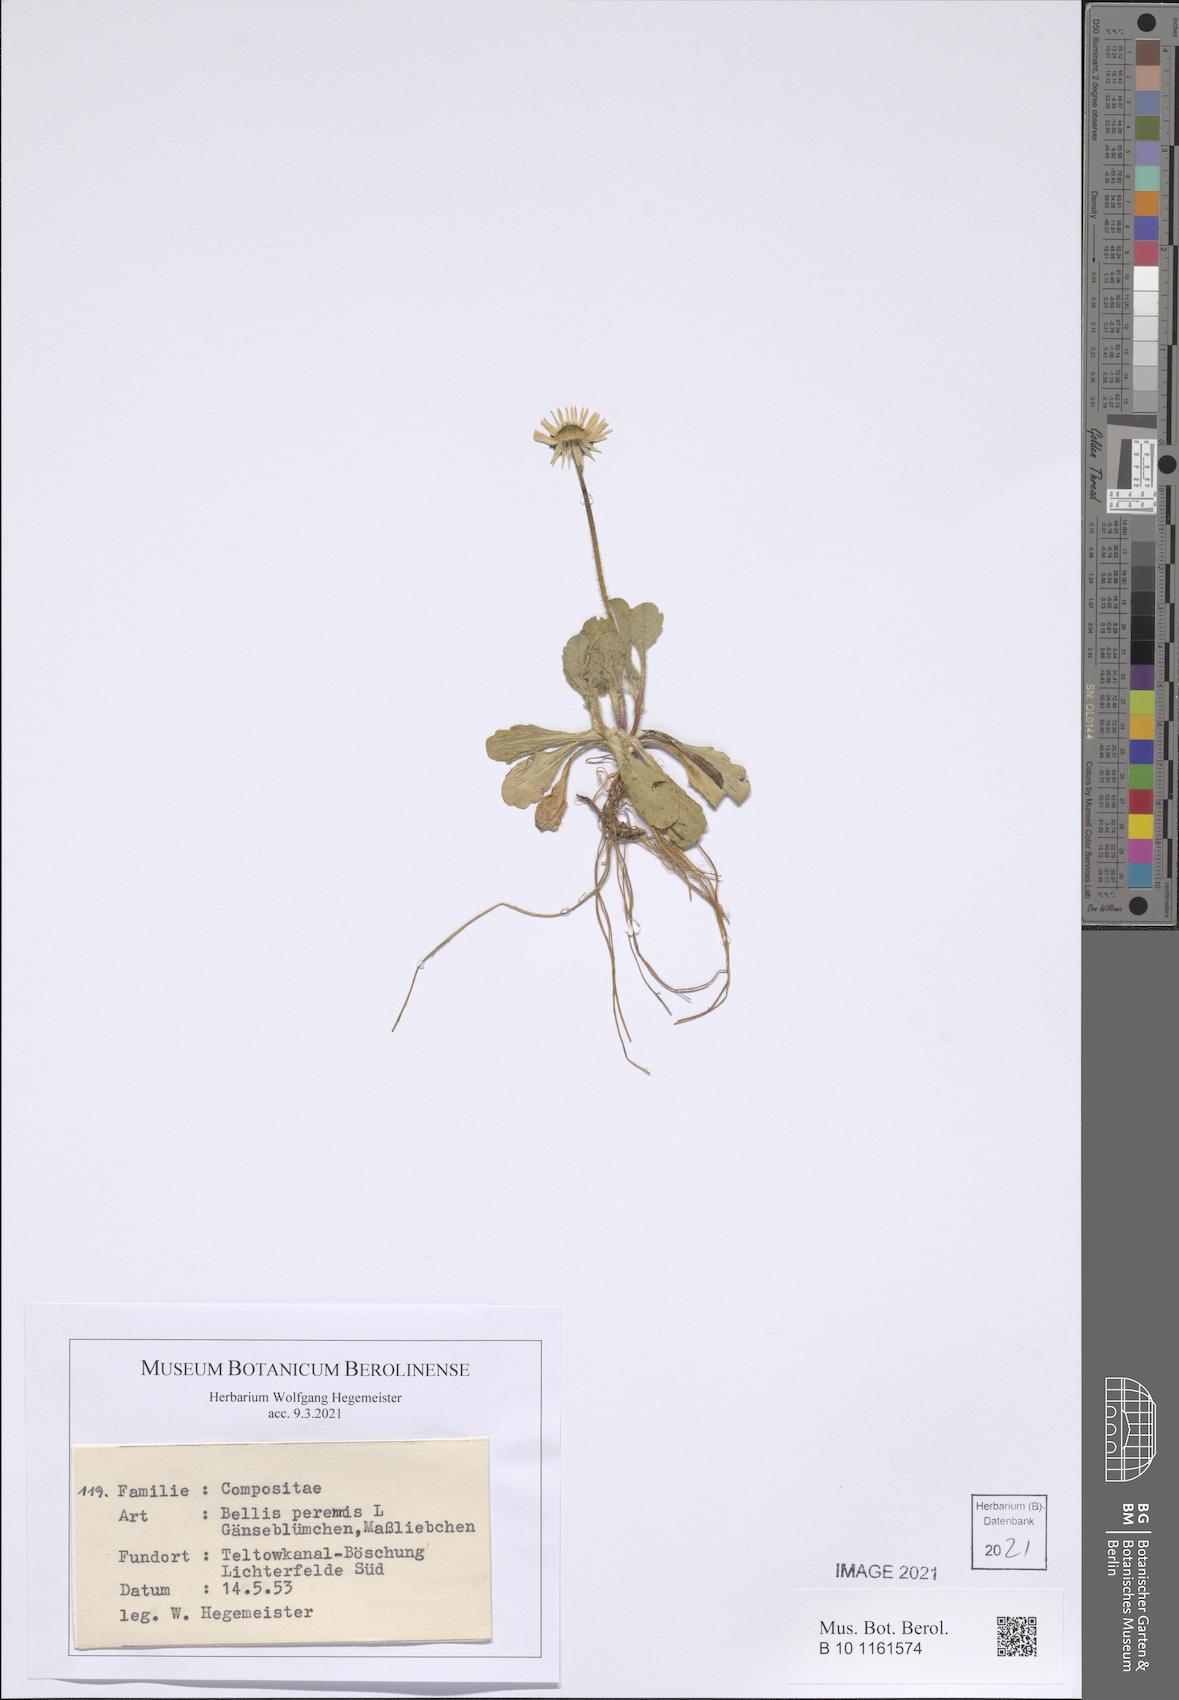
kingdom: Plantae
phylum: Tracheophyta
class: Magnoliopsida
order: Asterales
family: Asteraceae
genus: Bellis
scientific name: Bellis perennis
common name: Lawndaisy
